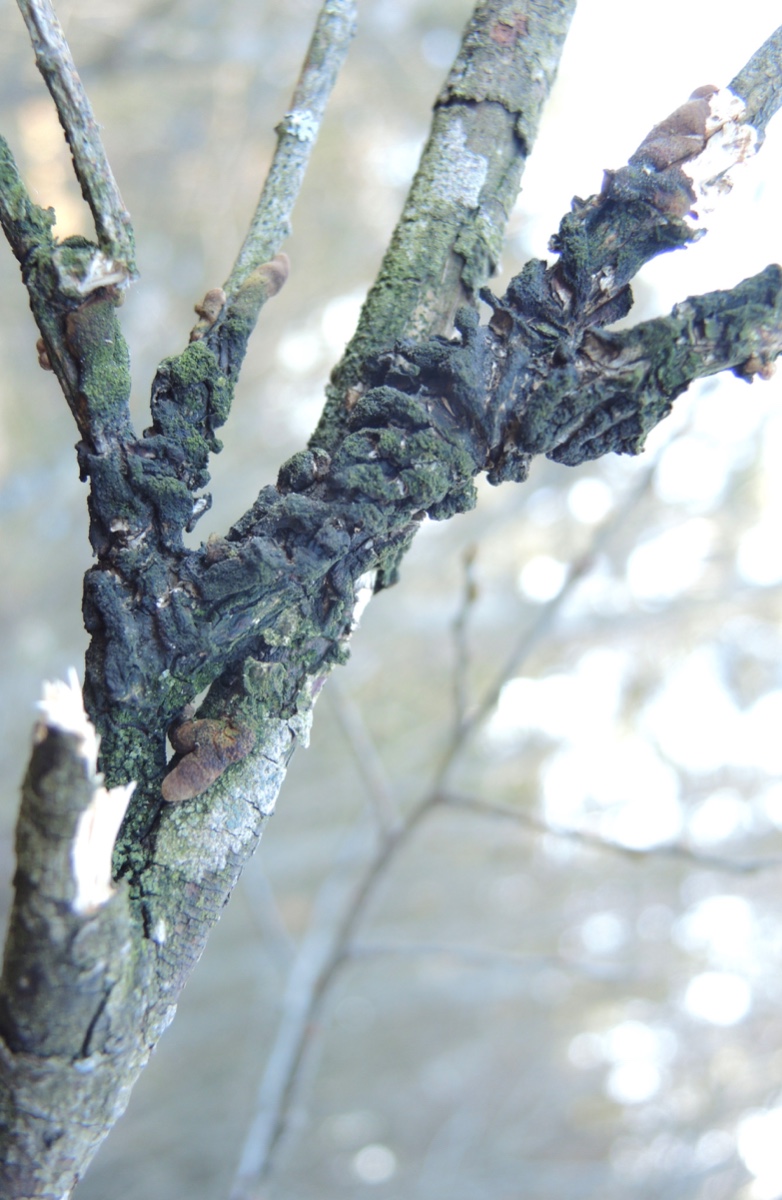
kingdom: Fungi
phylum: Ascomycota
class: Sordariomycetes
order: Hypocreales
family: Hypocreaceae
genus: Hypocreopsis
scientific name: Hypocreopsis lichenoides
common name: pilfinger
